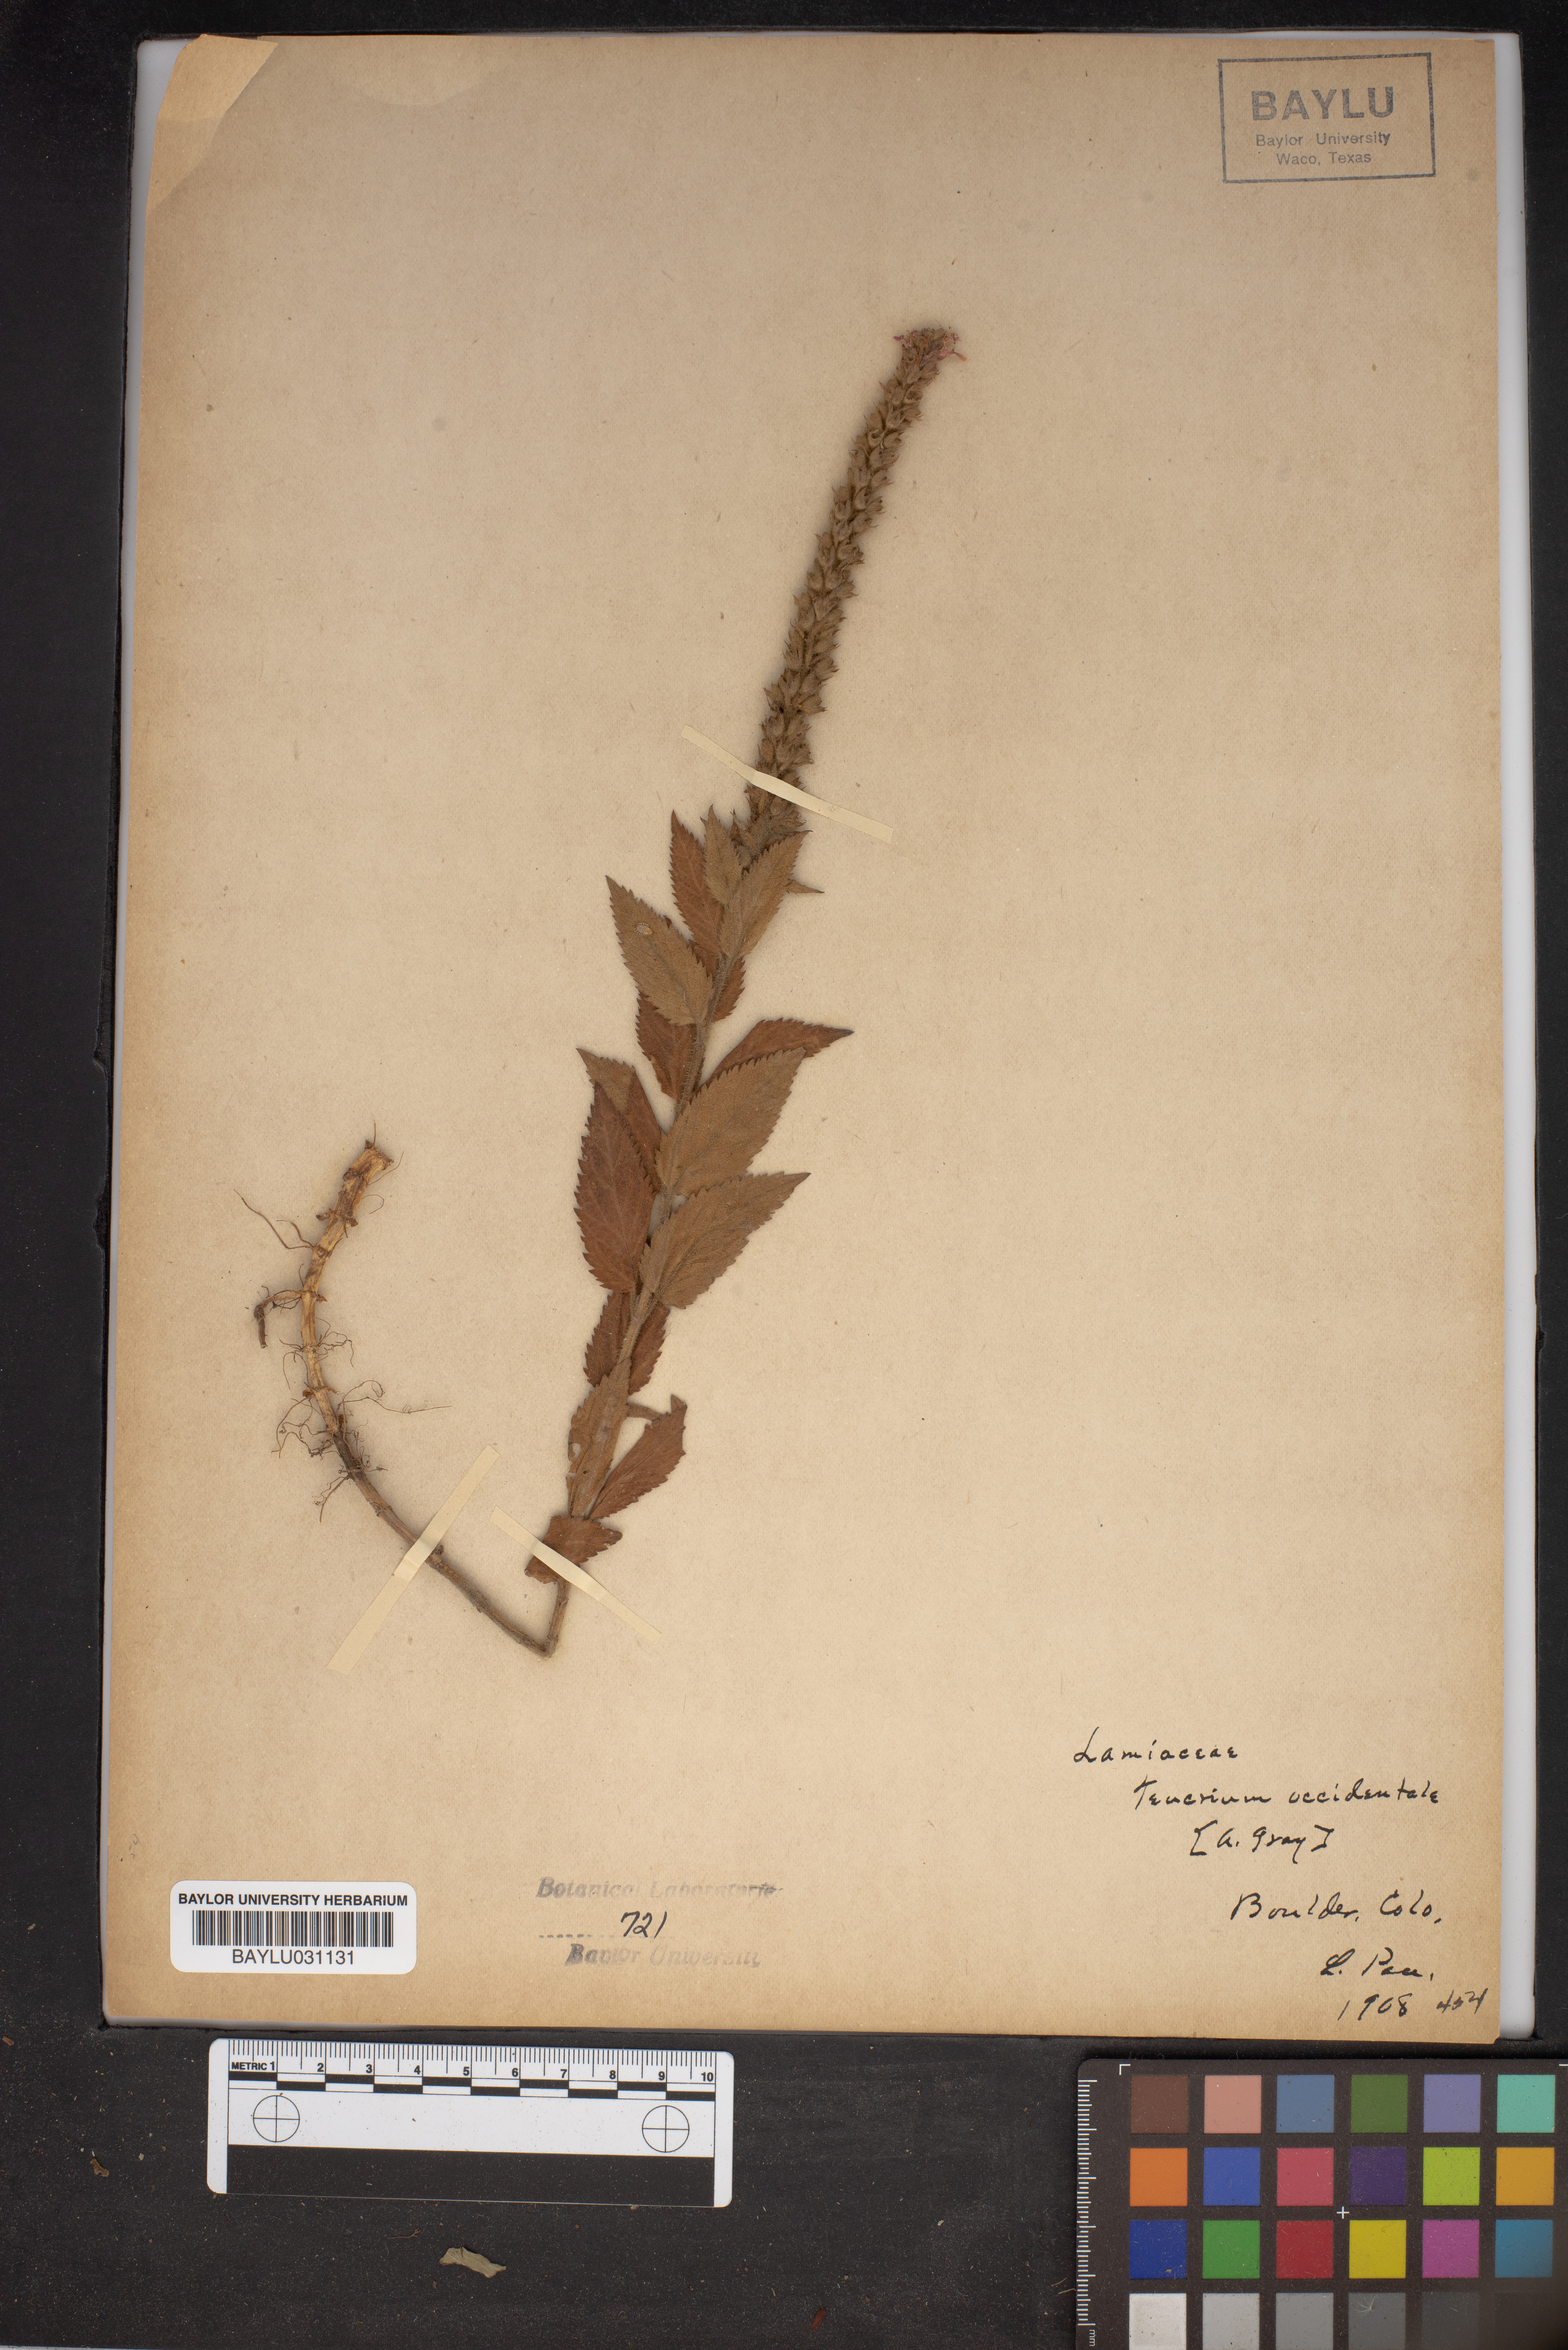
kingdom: Plantae
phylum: Tracheophyta
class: Magnoliopsida
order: Lamiales
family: Lamiaceae
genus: Teucrium
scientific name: Teucrium canadense
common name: American germander
